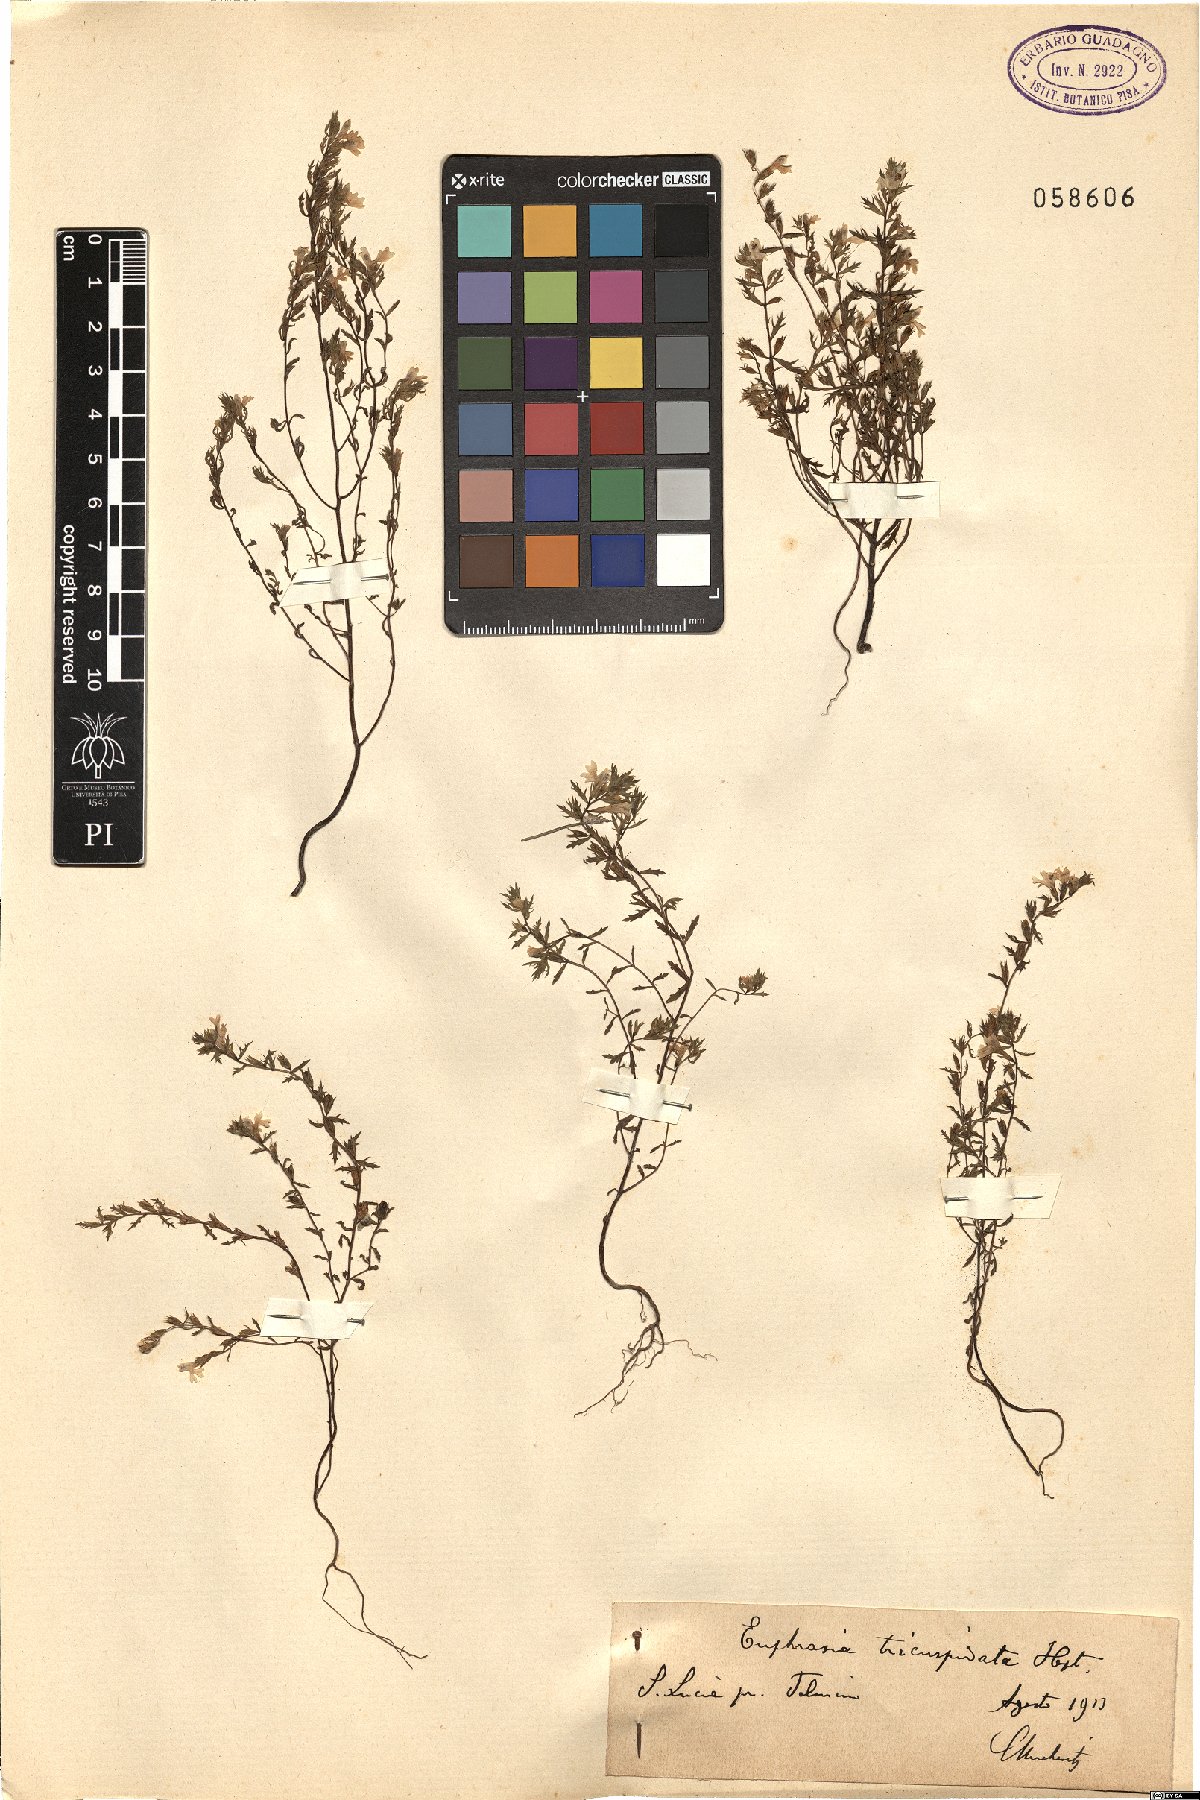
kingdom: Plantae
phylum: Tracheophyta
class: Magnoliopsida
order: Lamiales
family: Orobanchaceae
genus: Euphrasia
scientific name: Euphrasia tricuspidata
